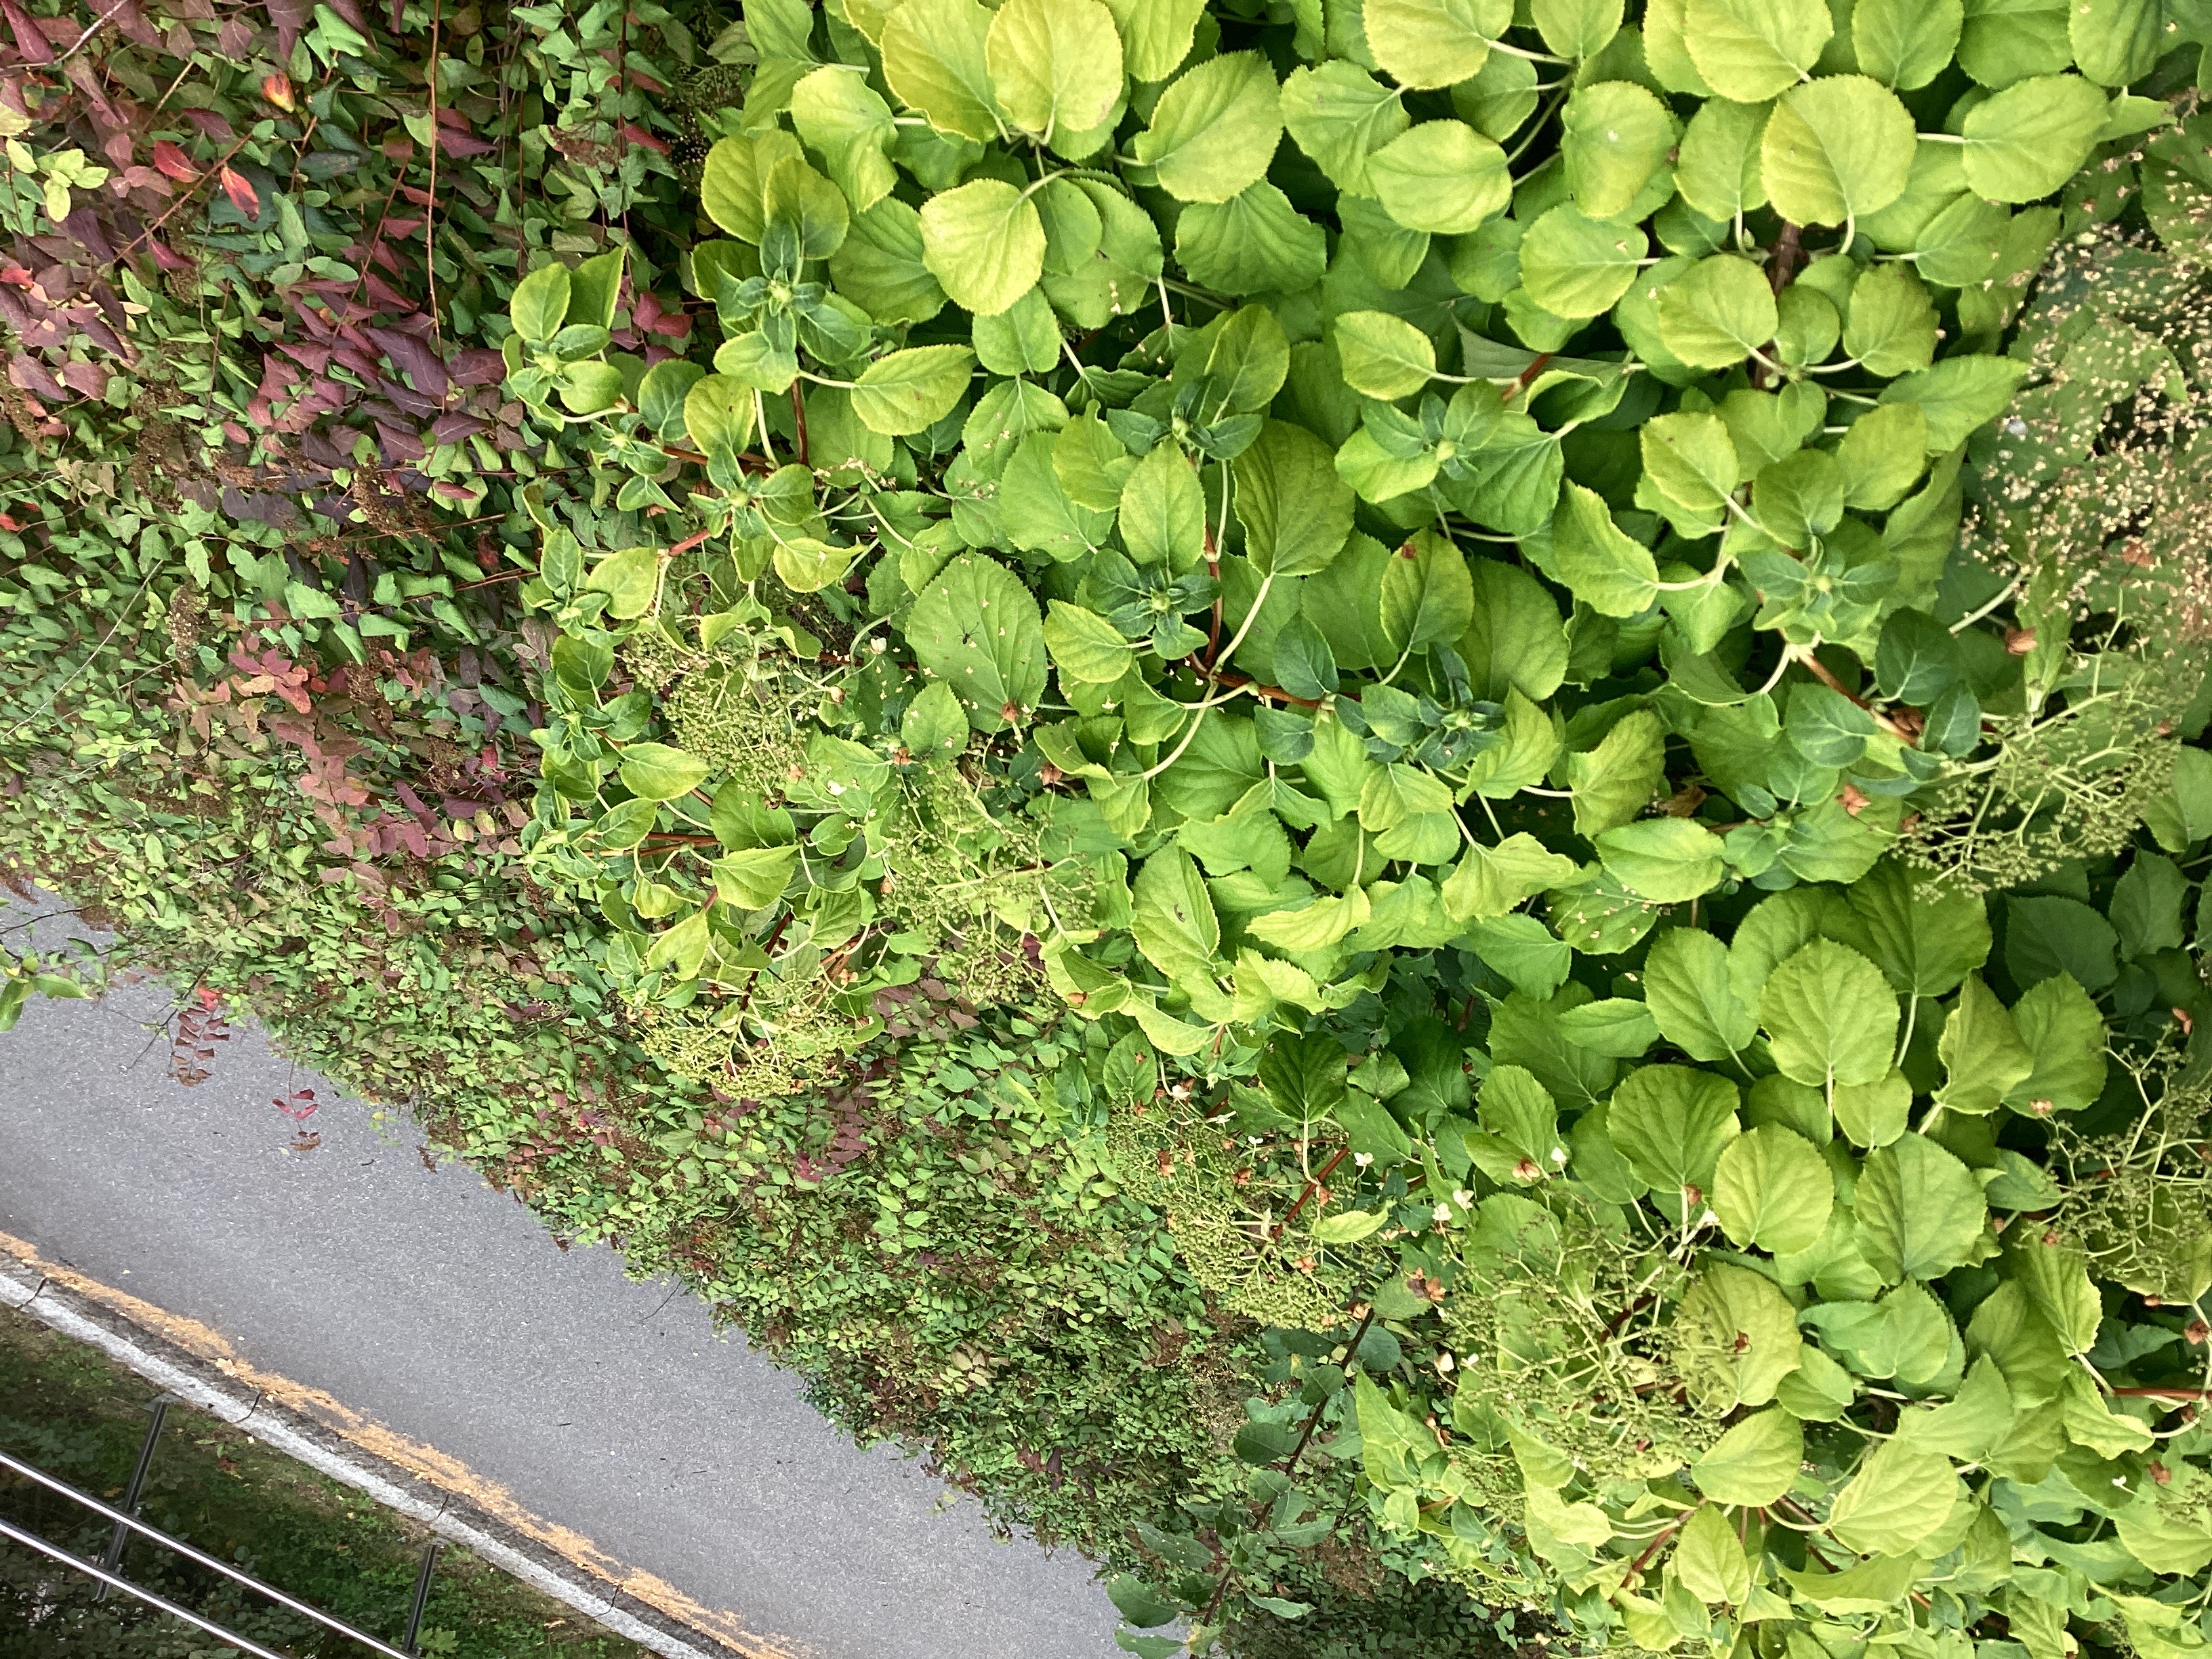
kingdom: Plantae
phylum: Tracheophyta
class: Magnoliopsida
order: Cornales
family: Hydrangeaceae
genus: Hydrangea
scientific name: Hydrangea petiolaris
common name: klatrehortensia
